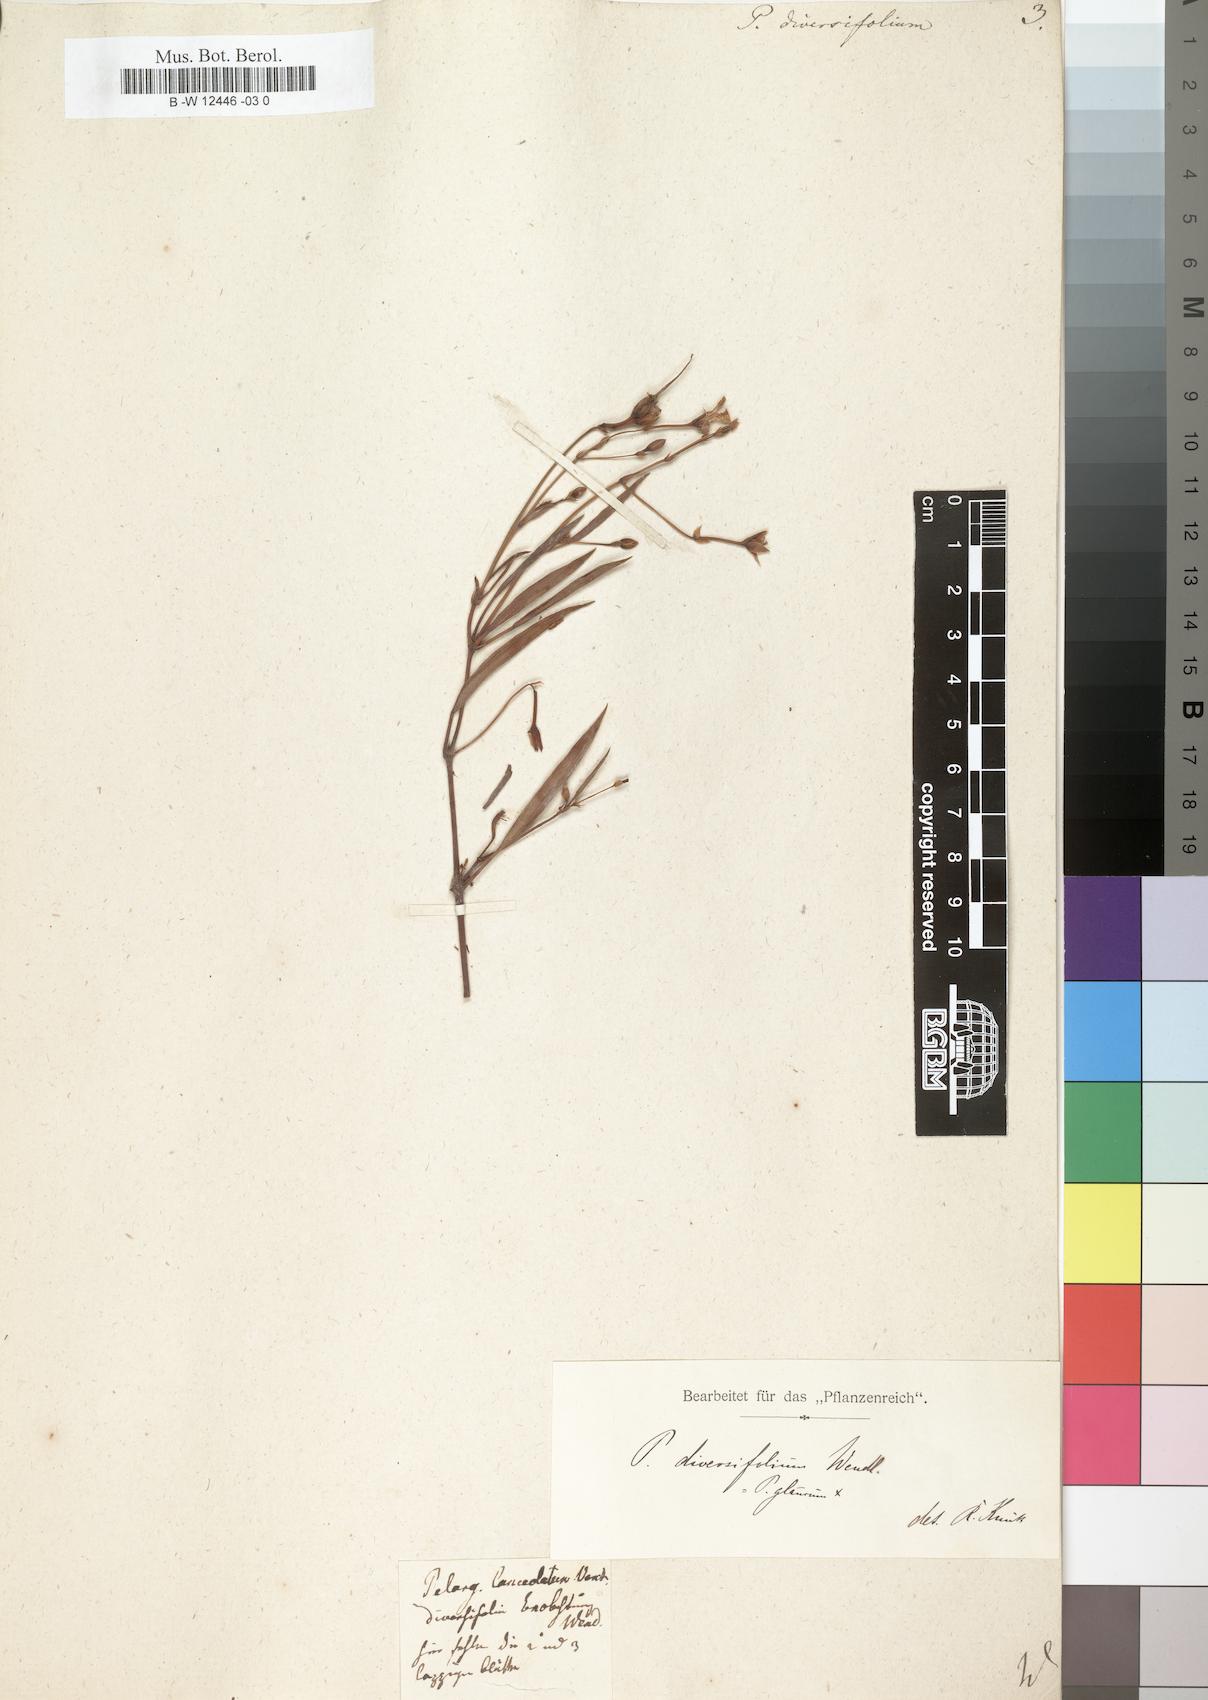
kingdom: Plantae
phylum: Tracheophyta
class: Magnoliopsida
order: Geraniales
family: Geraniaceae
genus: Pelargonium
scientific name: Pelargonium laevigatum
